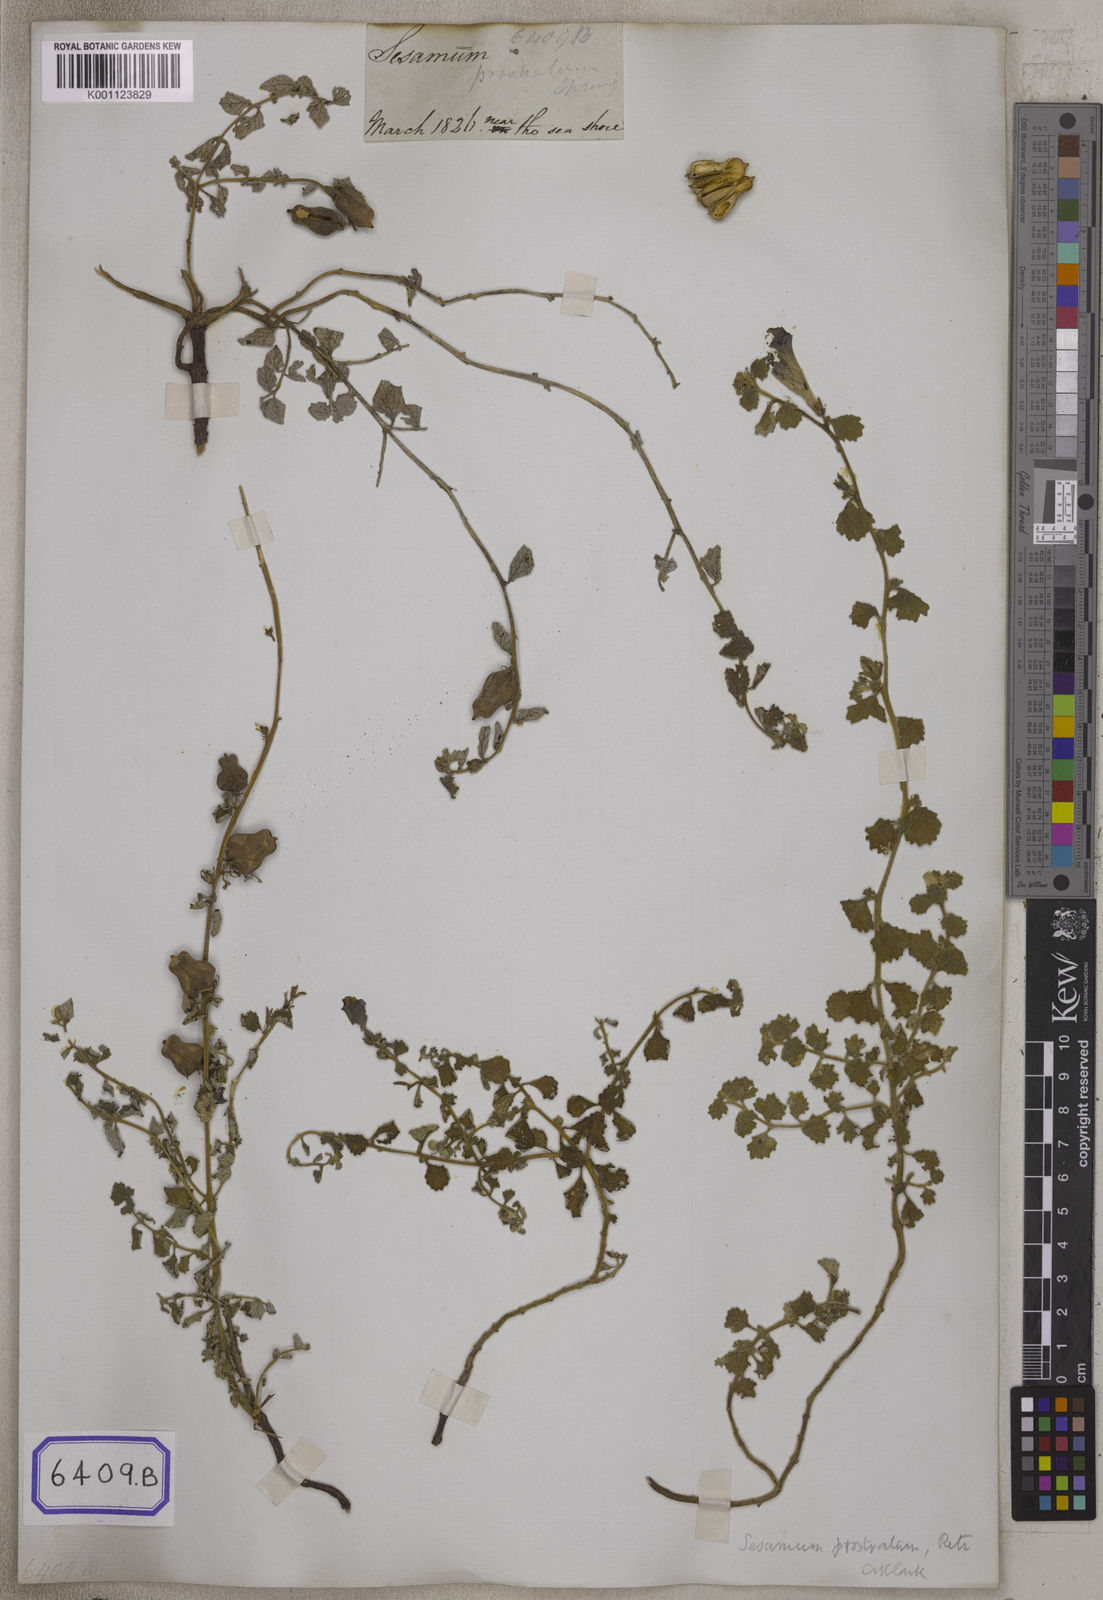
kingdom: Plantae
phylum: Tracheophyta
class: Magnoliopsida
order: Lamiales
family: Pedaliaceae
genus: Sesamum
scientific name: Sesamum prostratum
